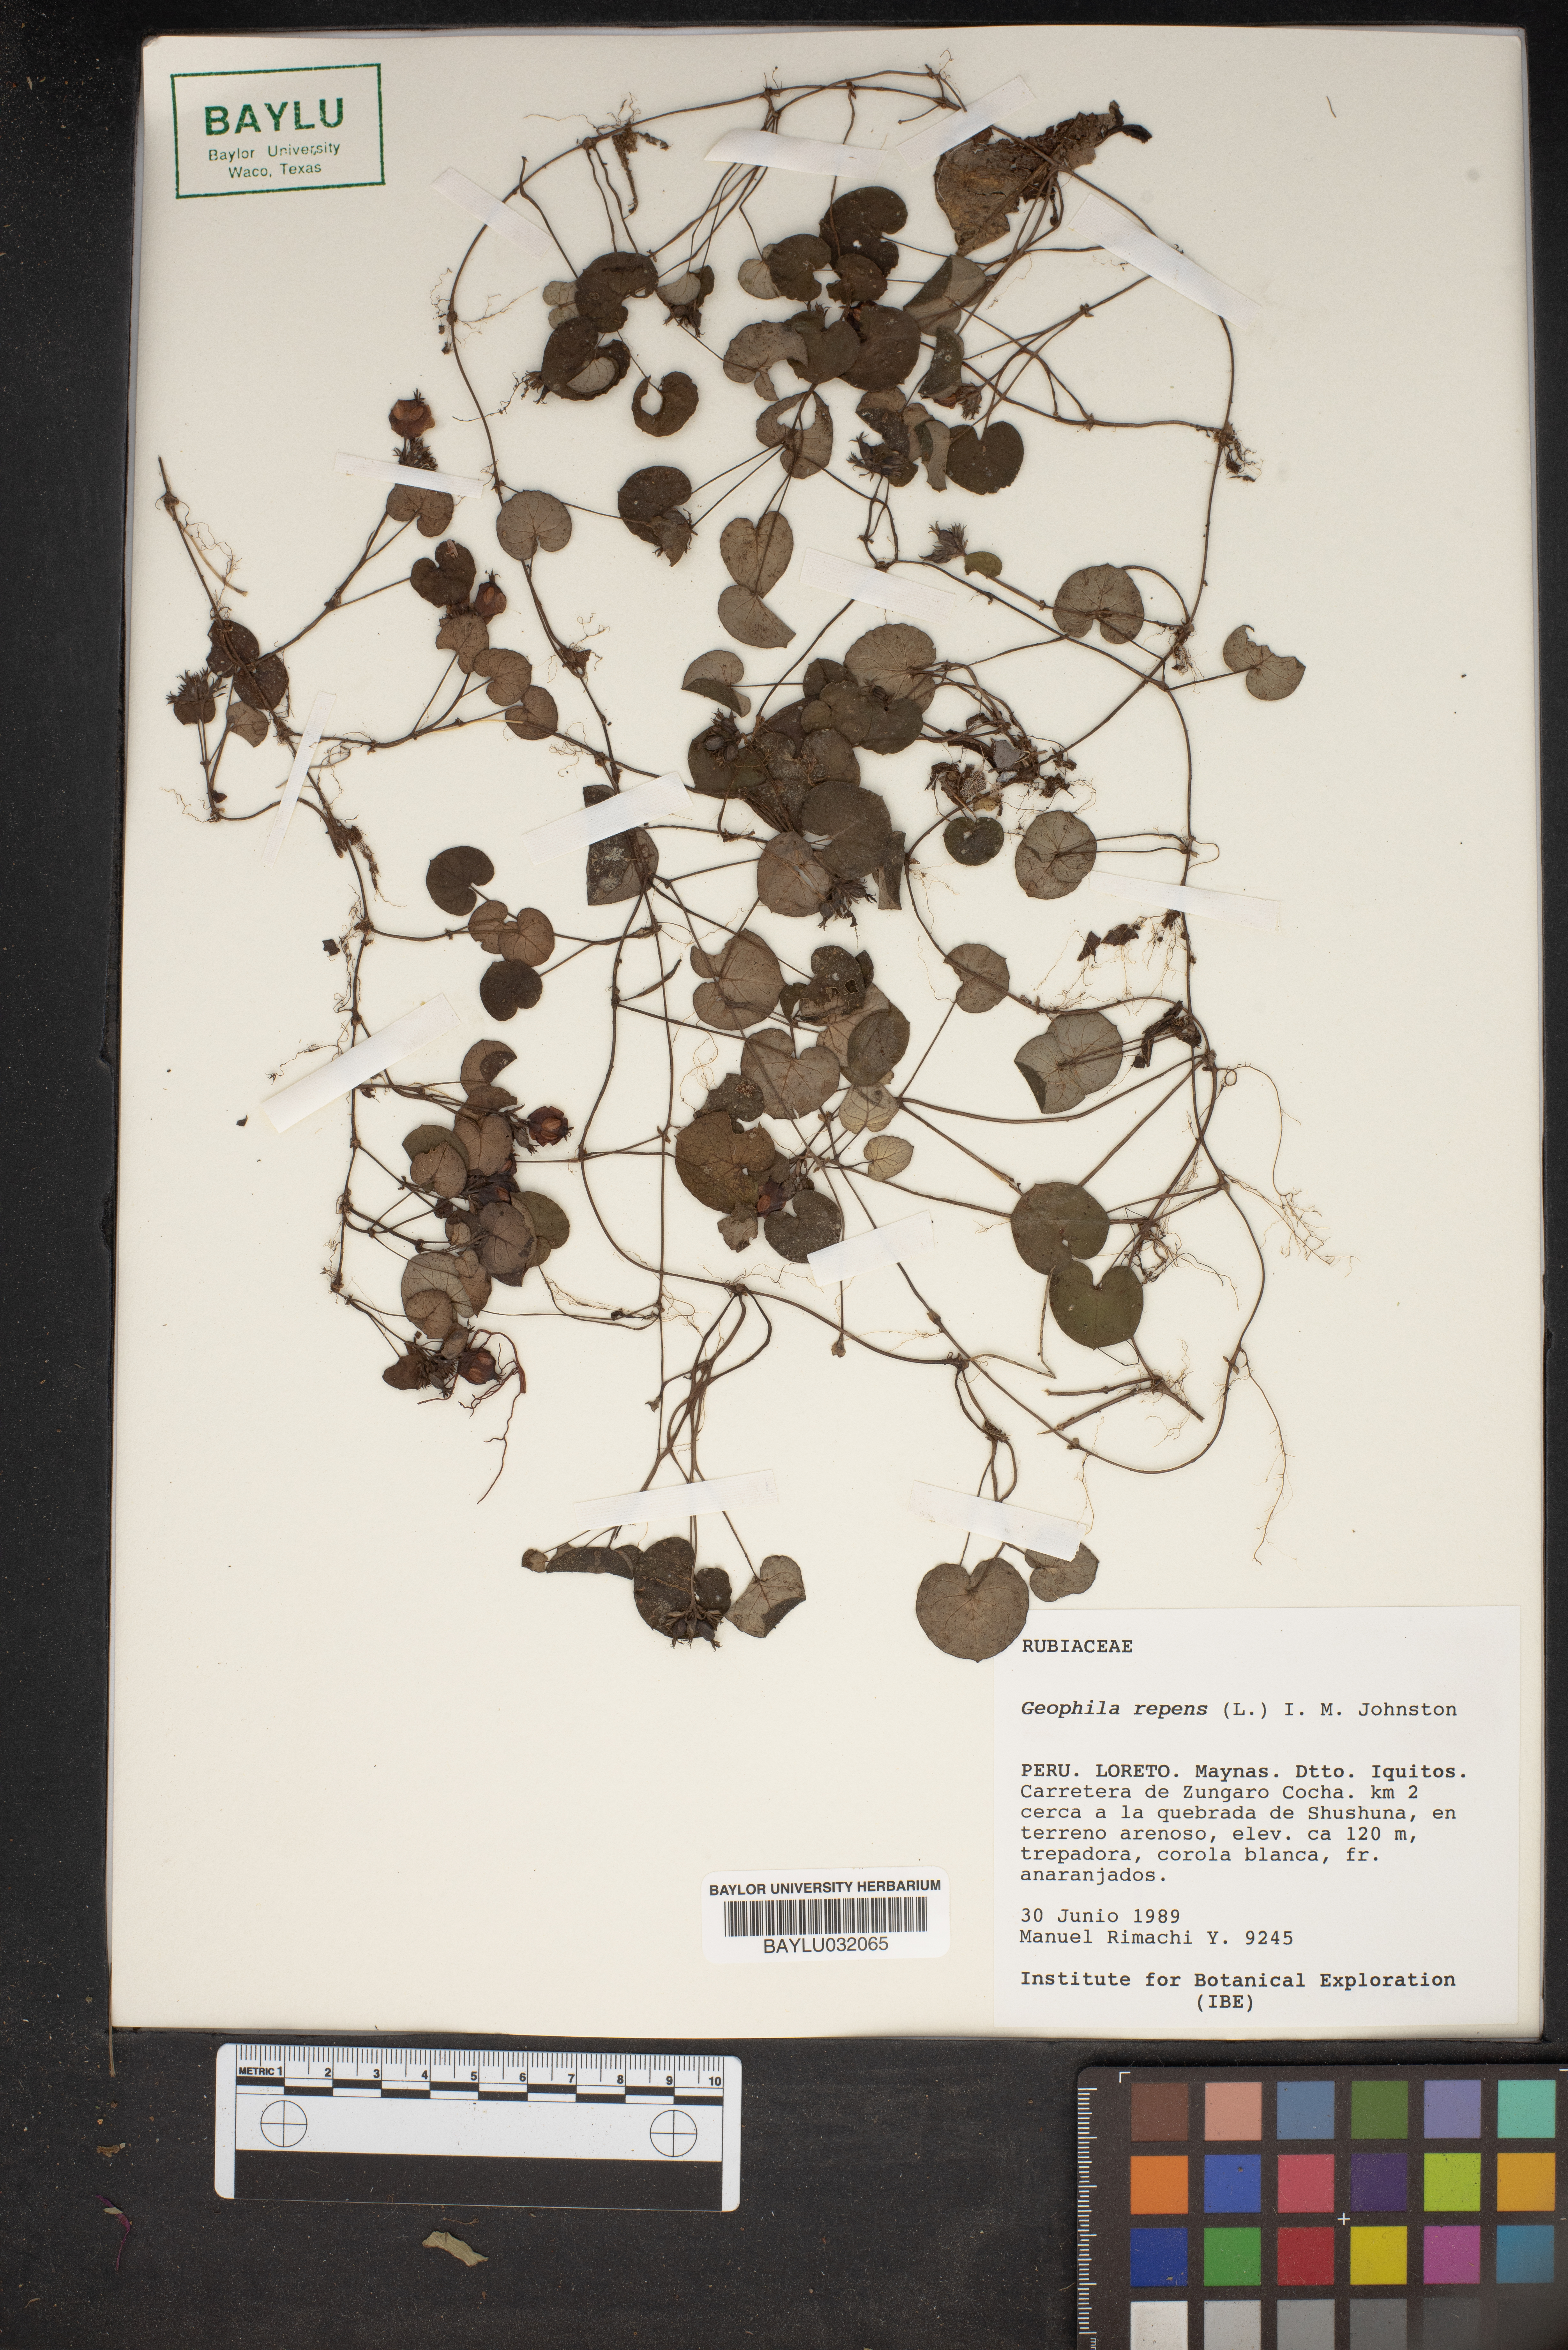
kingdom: Plantae
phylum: Tracheophyta
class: Magnoliopsida
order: Gentianales
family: Rubiaceae
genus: Geophila
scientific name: Geophila repens
